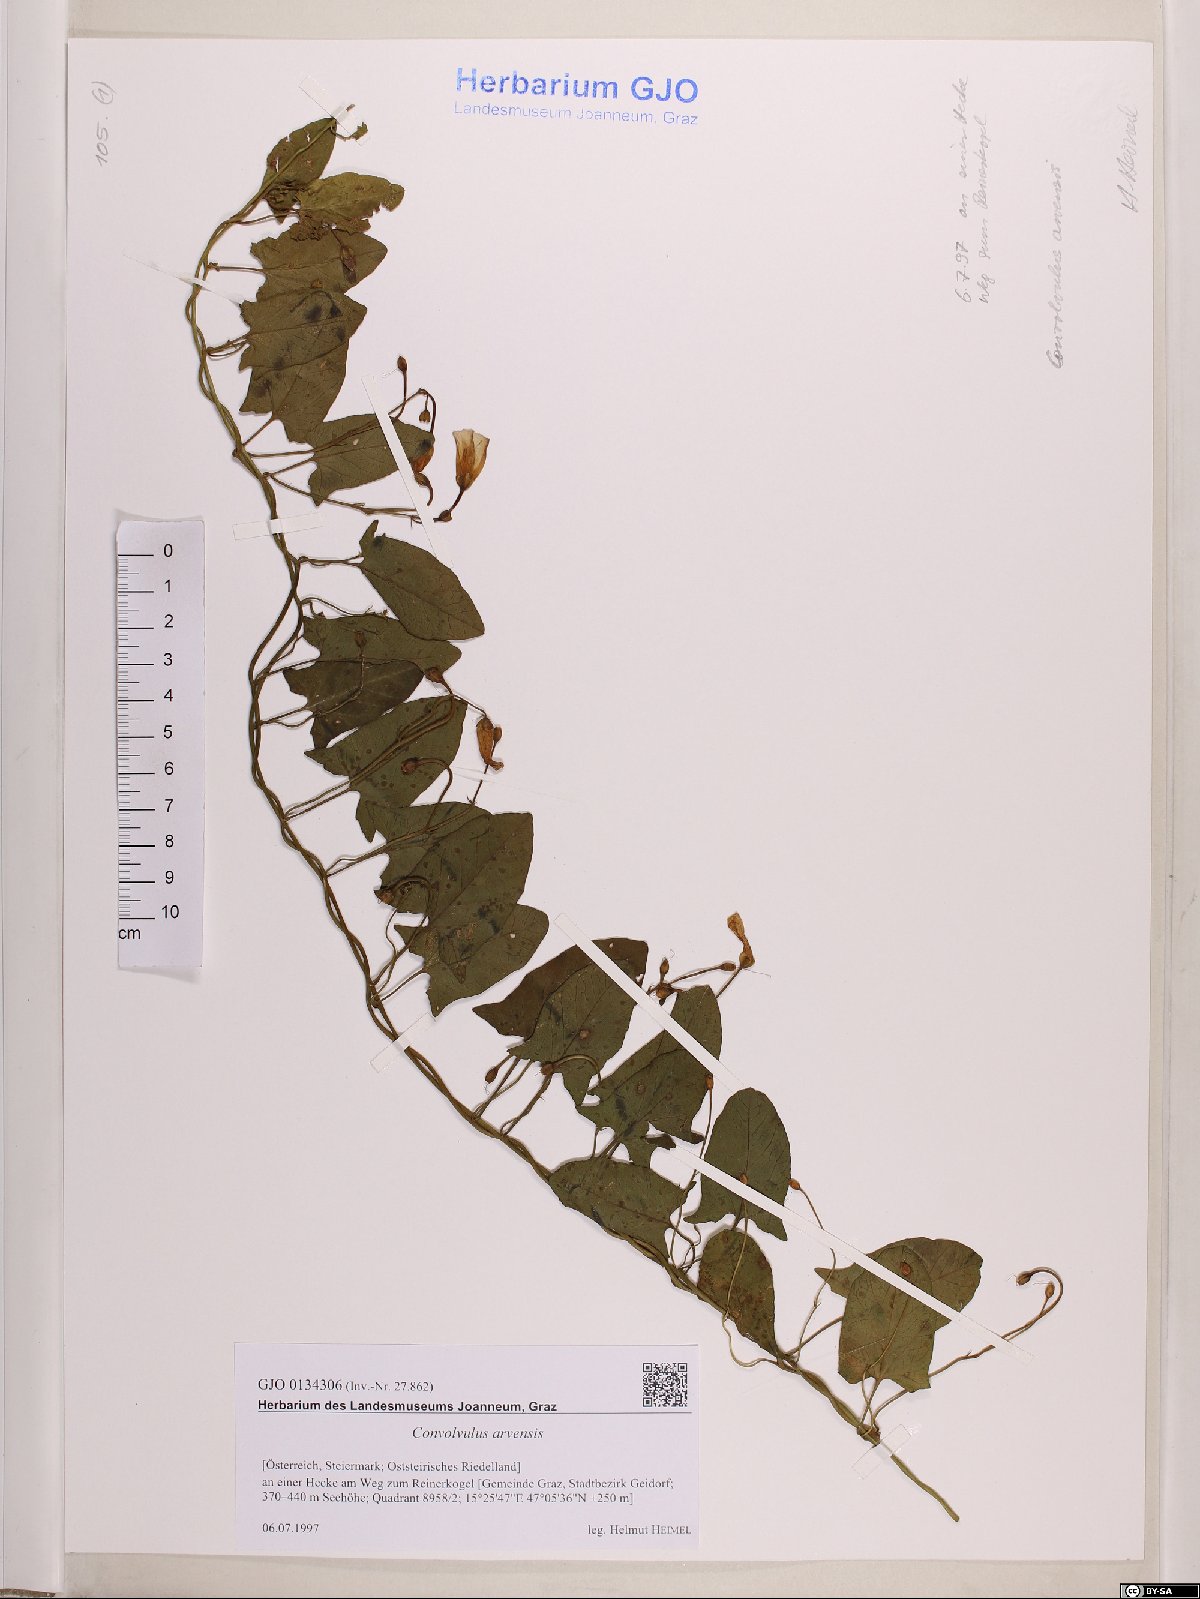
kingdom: Plantae
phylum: Tracheophyta
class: Magnoliopsida
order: Solanales
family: Convolvulaceae
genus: Convolvulus
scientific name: Convolvulus arvensis
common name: Field bindweed
